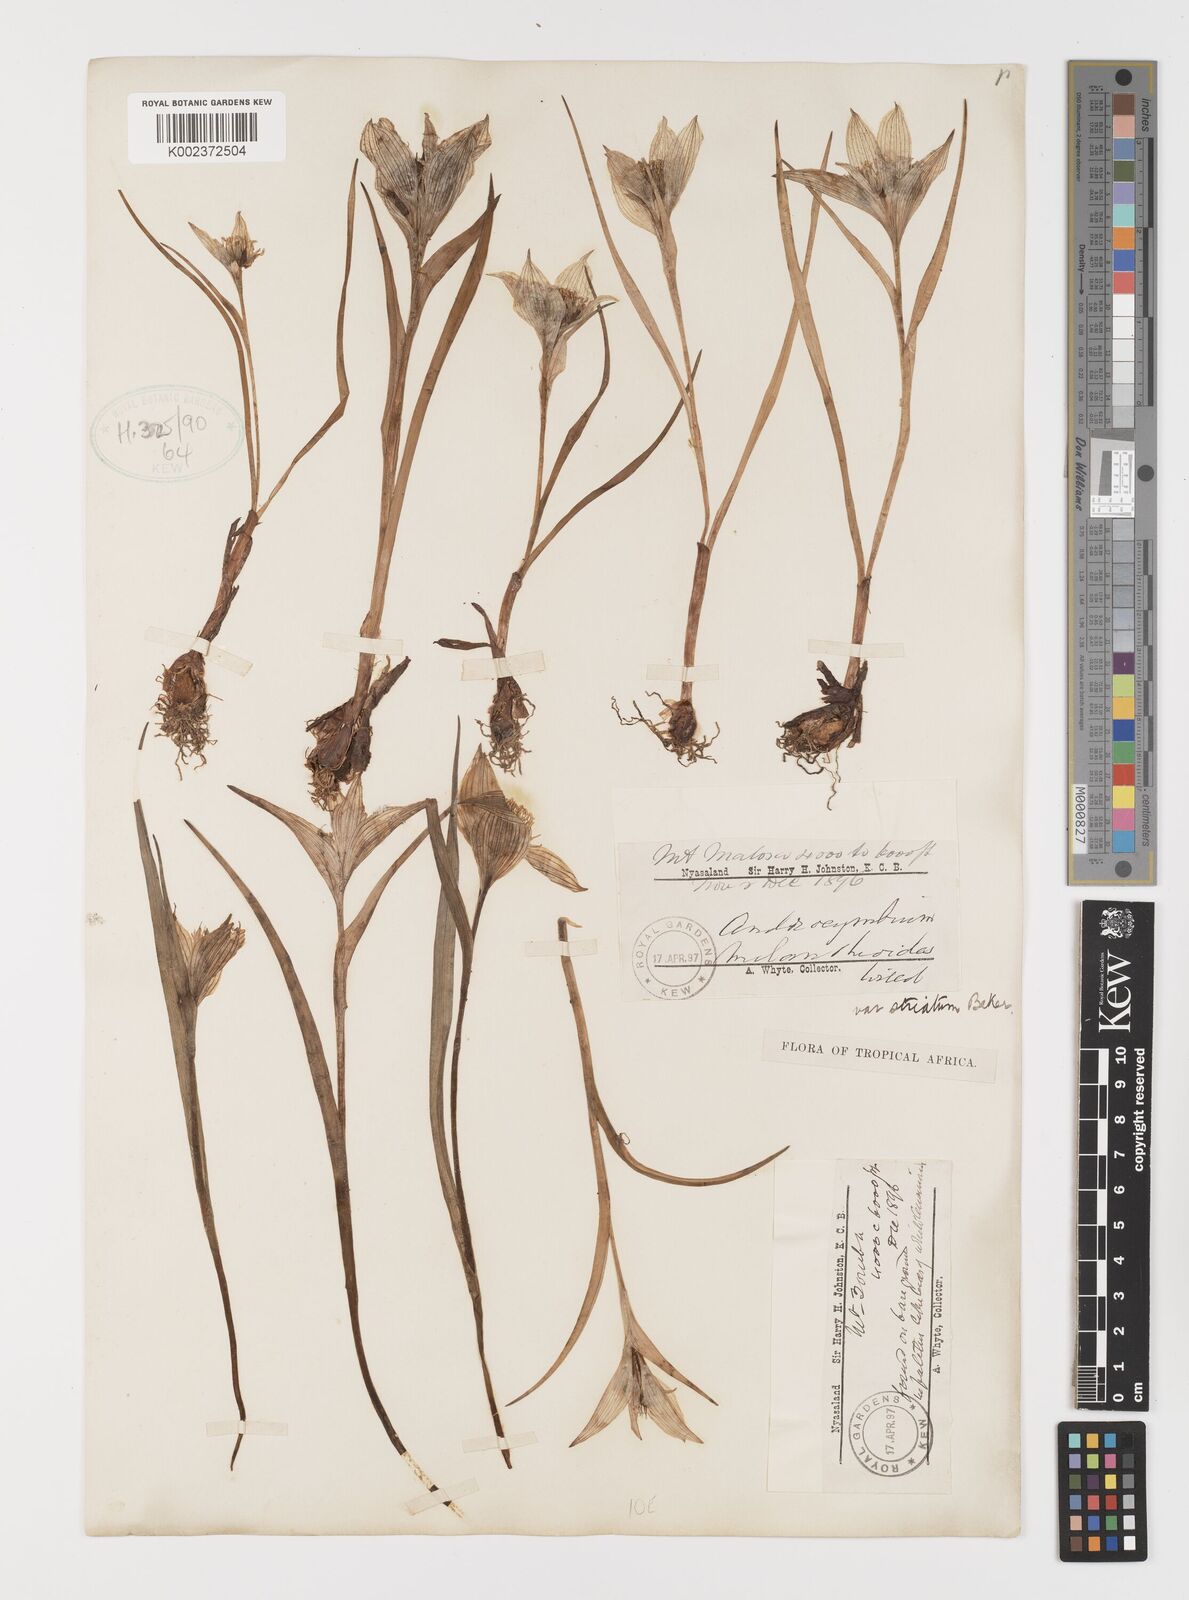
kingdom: Plantae
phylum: Tracheophyta
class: Liliopsida
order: Liliales
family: Colchicaceae
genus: Colchicum
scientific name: Colchicum melanthioides
